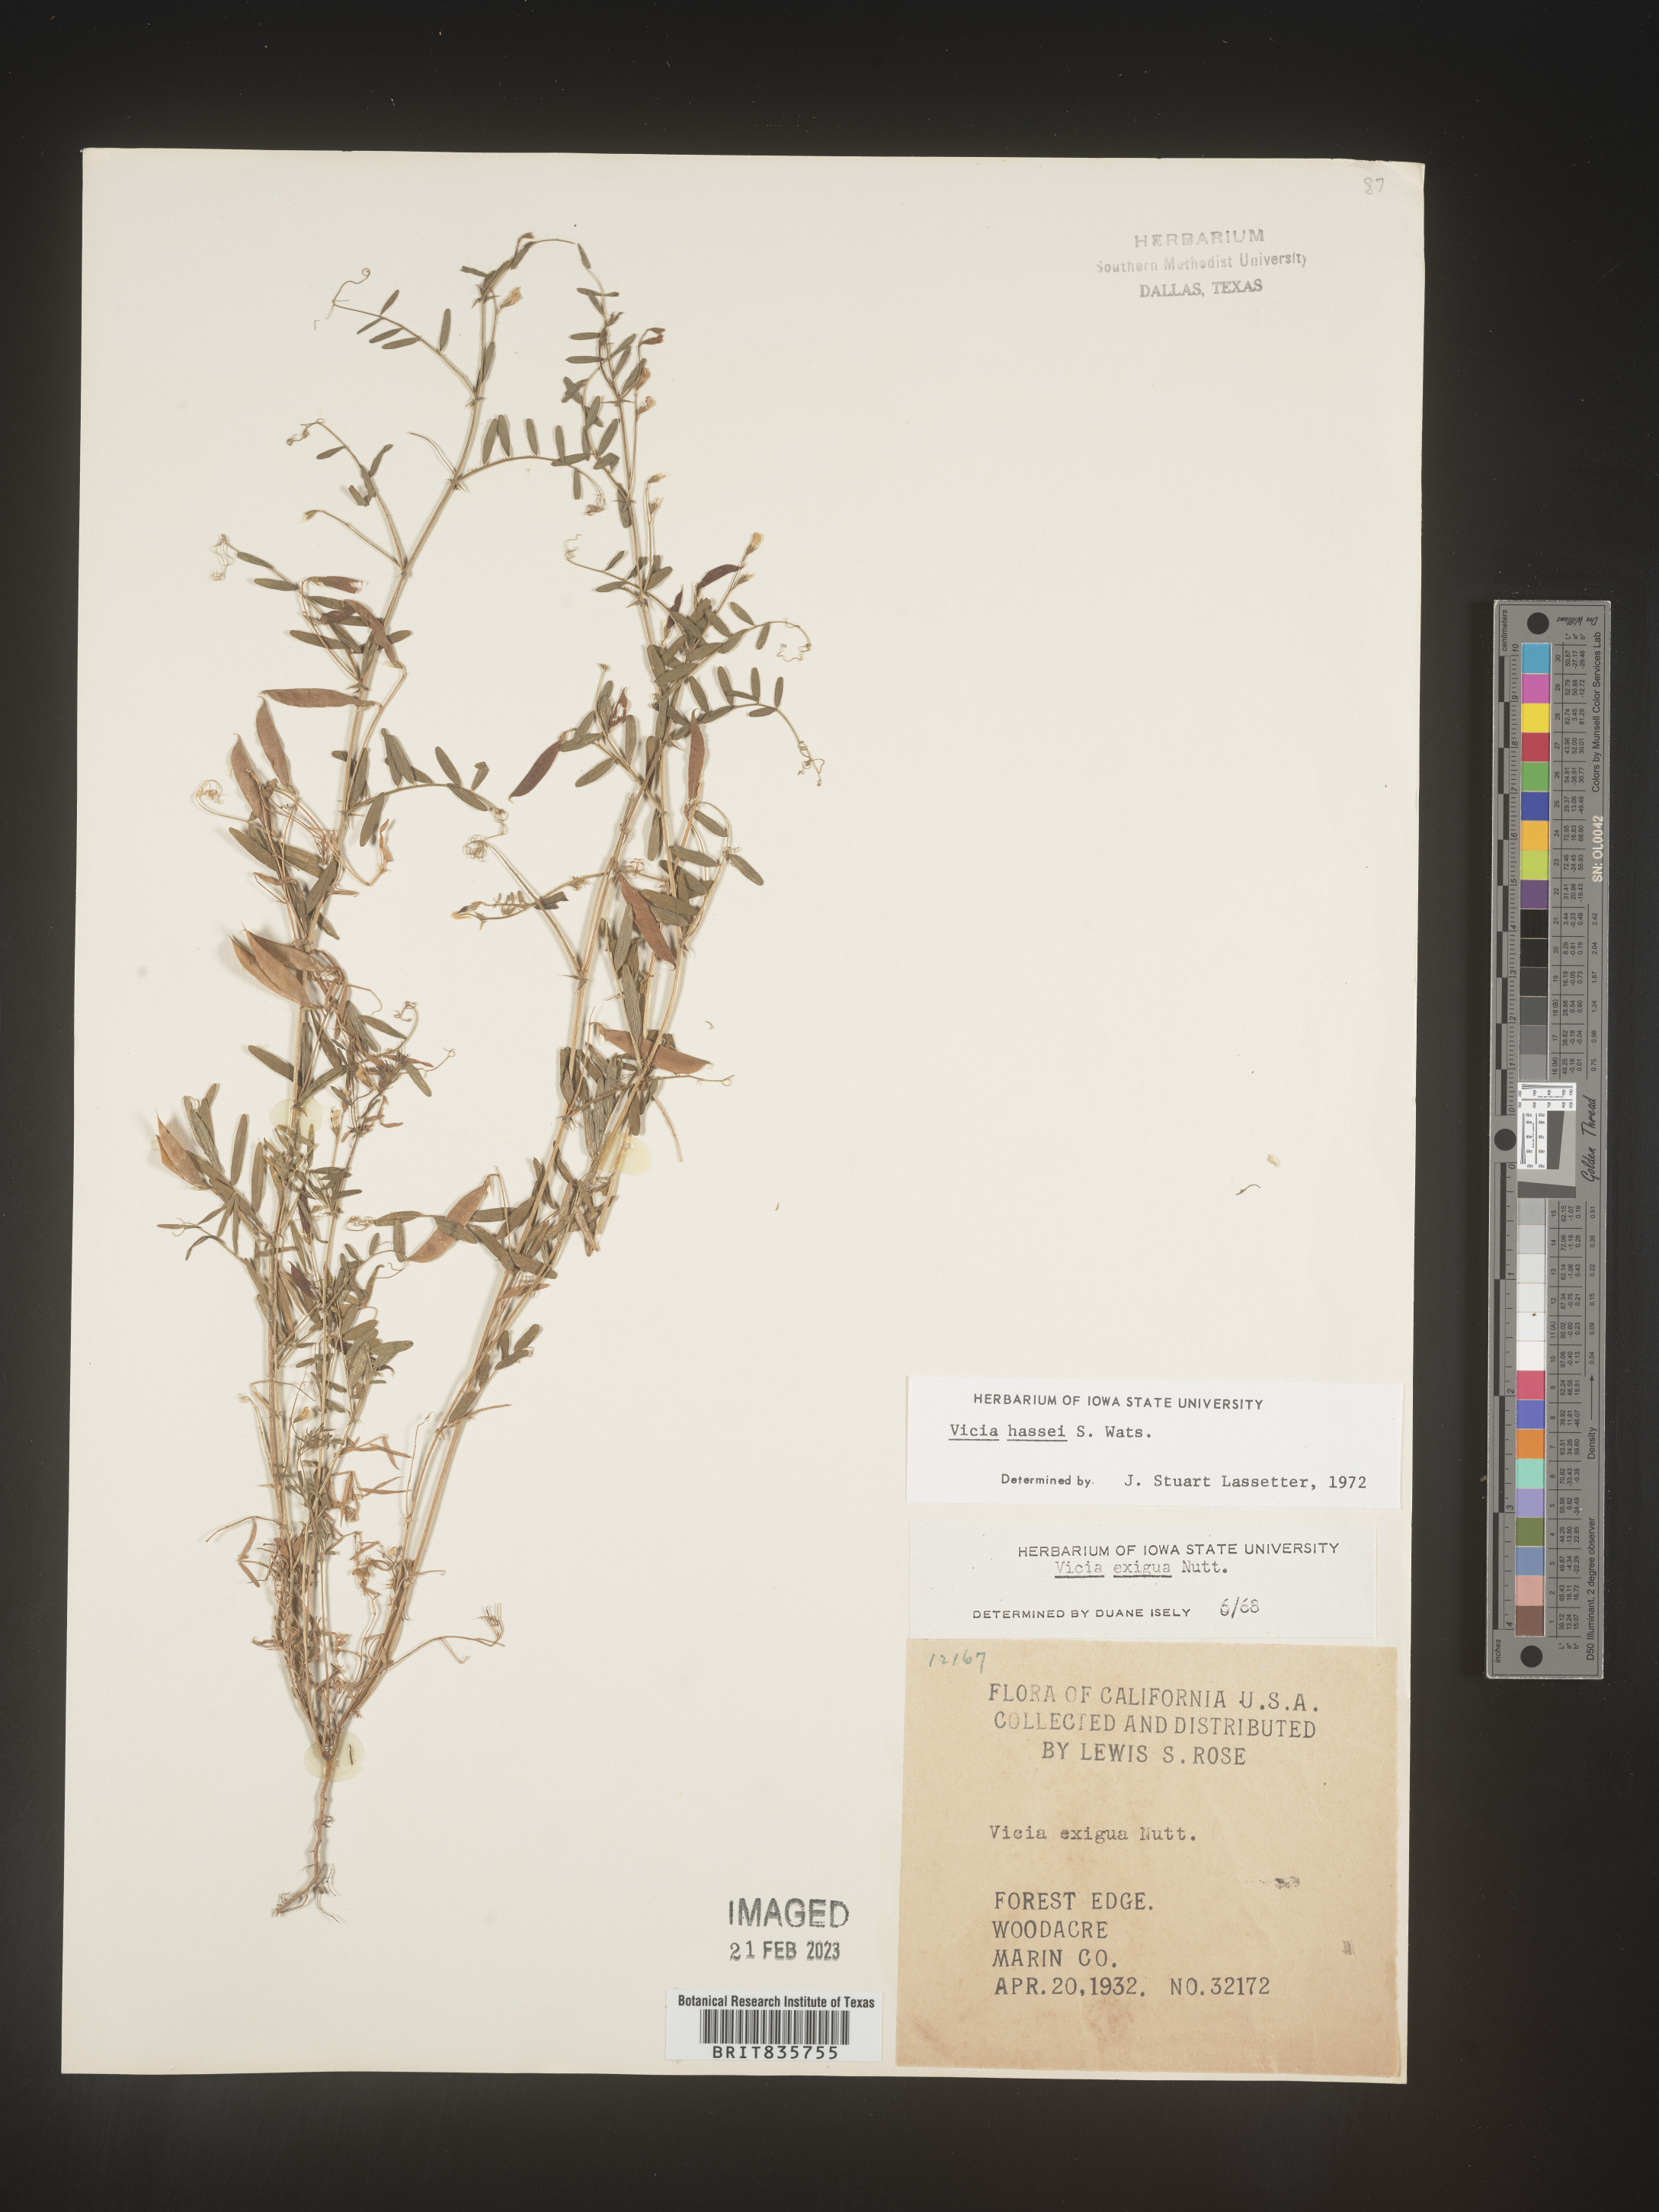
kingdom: Plantae
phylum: Tracheophyta
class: Magnoliopsida
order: Fabales
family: Fabaceae
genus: Vicia
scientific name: Vicia
